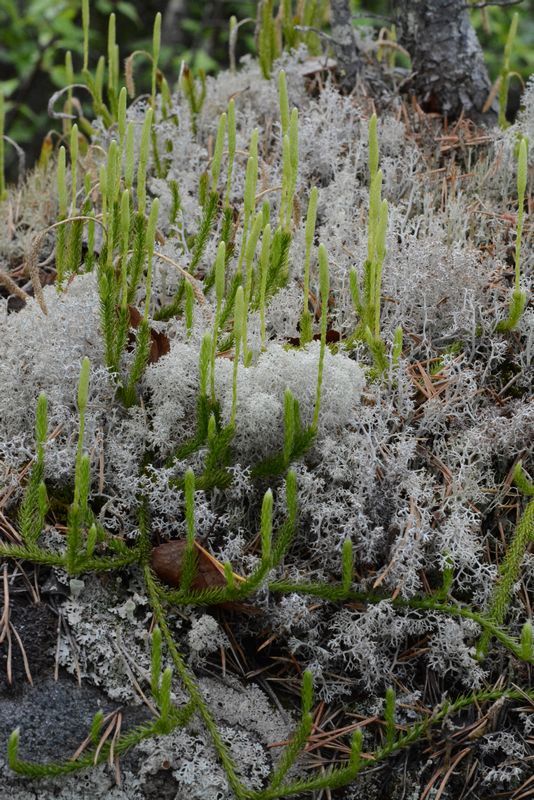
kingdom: Plantae
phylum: Tracheophyta
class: Lycopodiopsida
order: Lycopodiales
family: Lycopodiaceae
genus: Lycopodium
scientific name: Lycopodium clavatum
